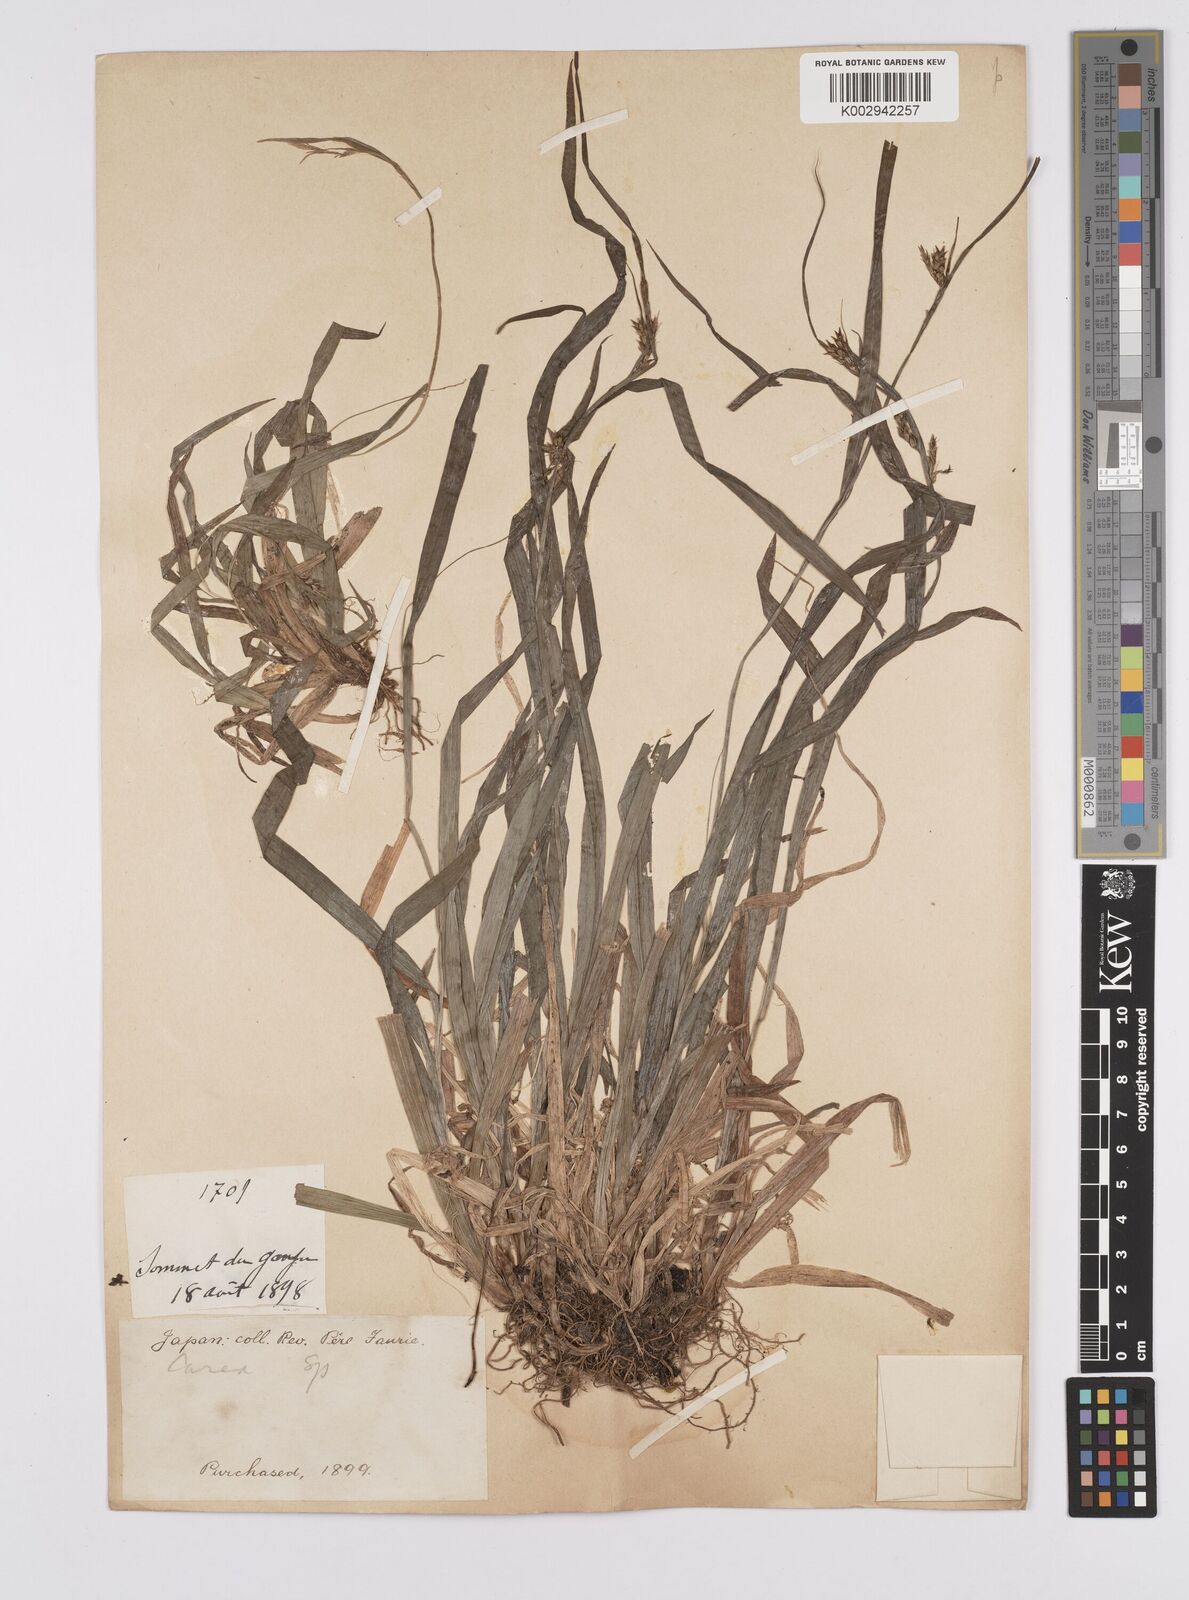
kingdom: Plantae
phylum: Tracheophyta
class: Liliopsida
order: Poales
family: Cyperaceae
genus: Carex
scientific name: Carex manciformis
